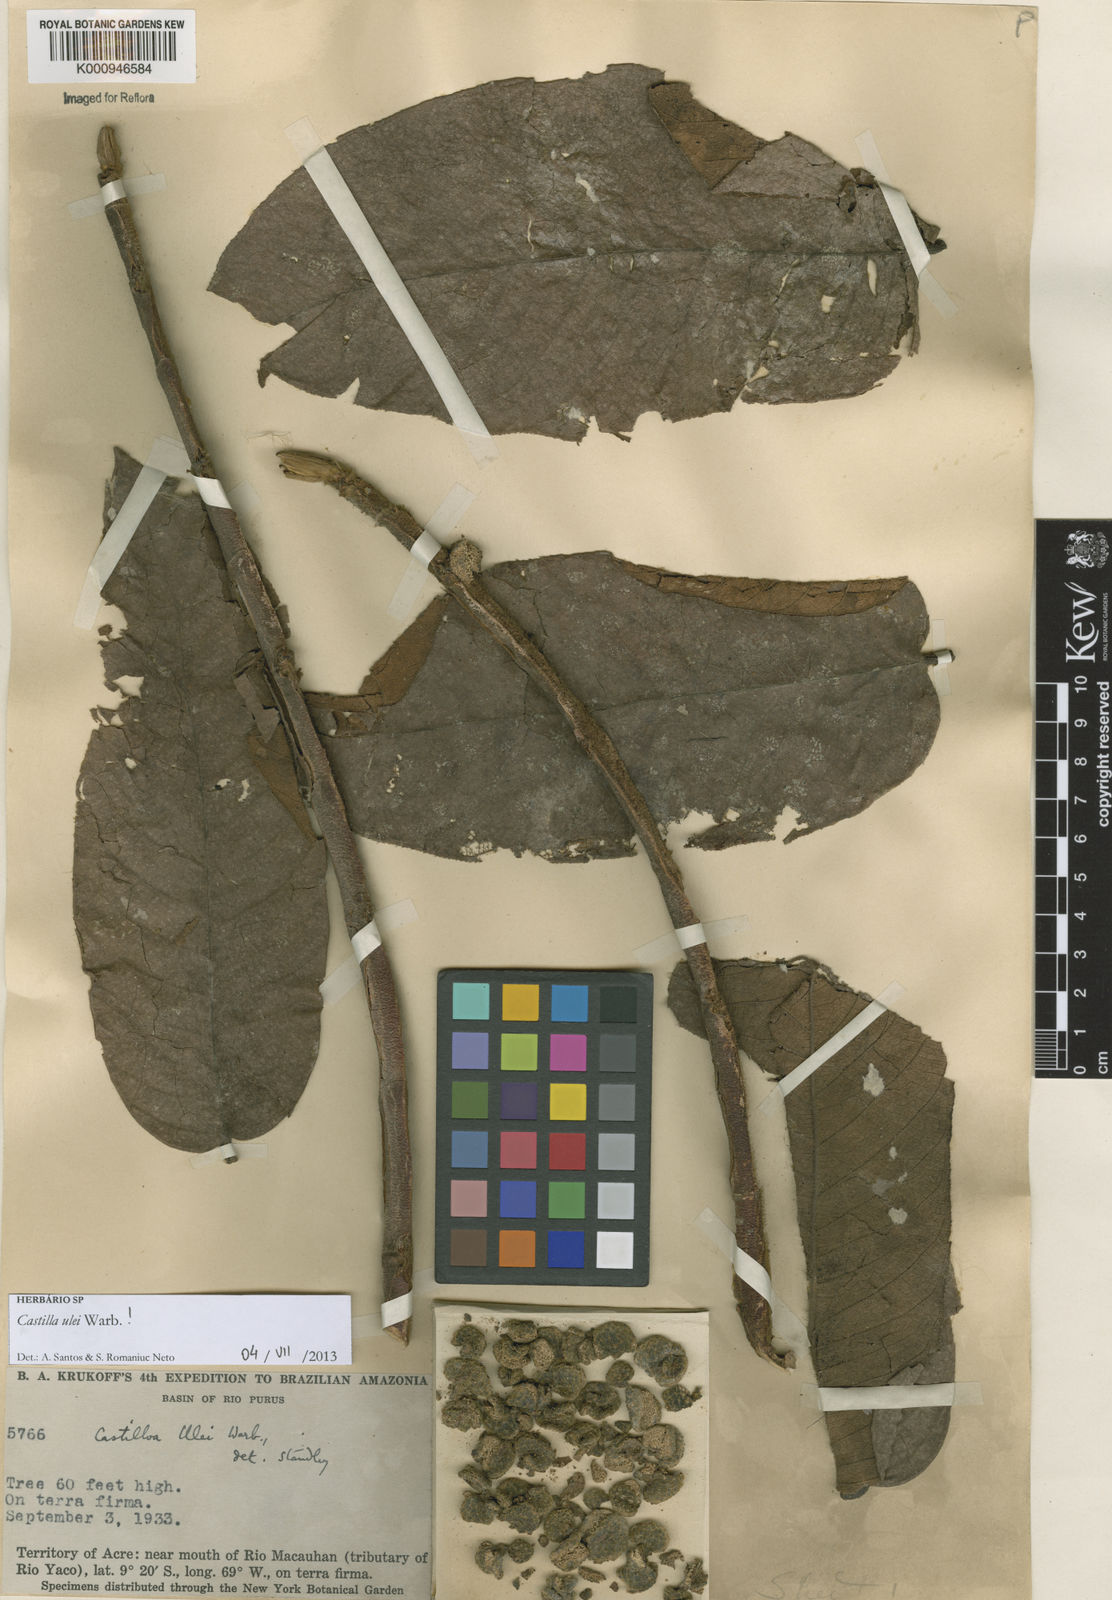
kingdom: Plantae
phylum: Tracheophyta
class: Magnoliopsida
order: Rosales
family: Moraceae
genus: Castilla
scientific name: Castilla ulei
